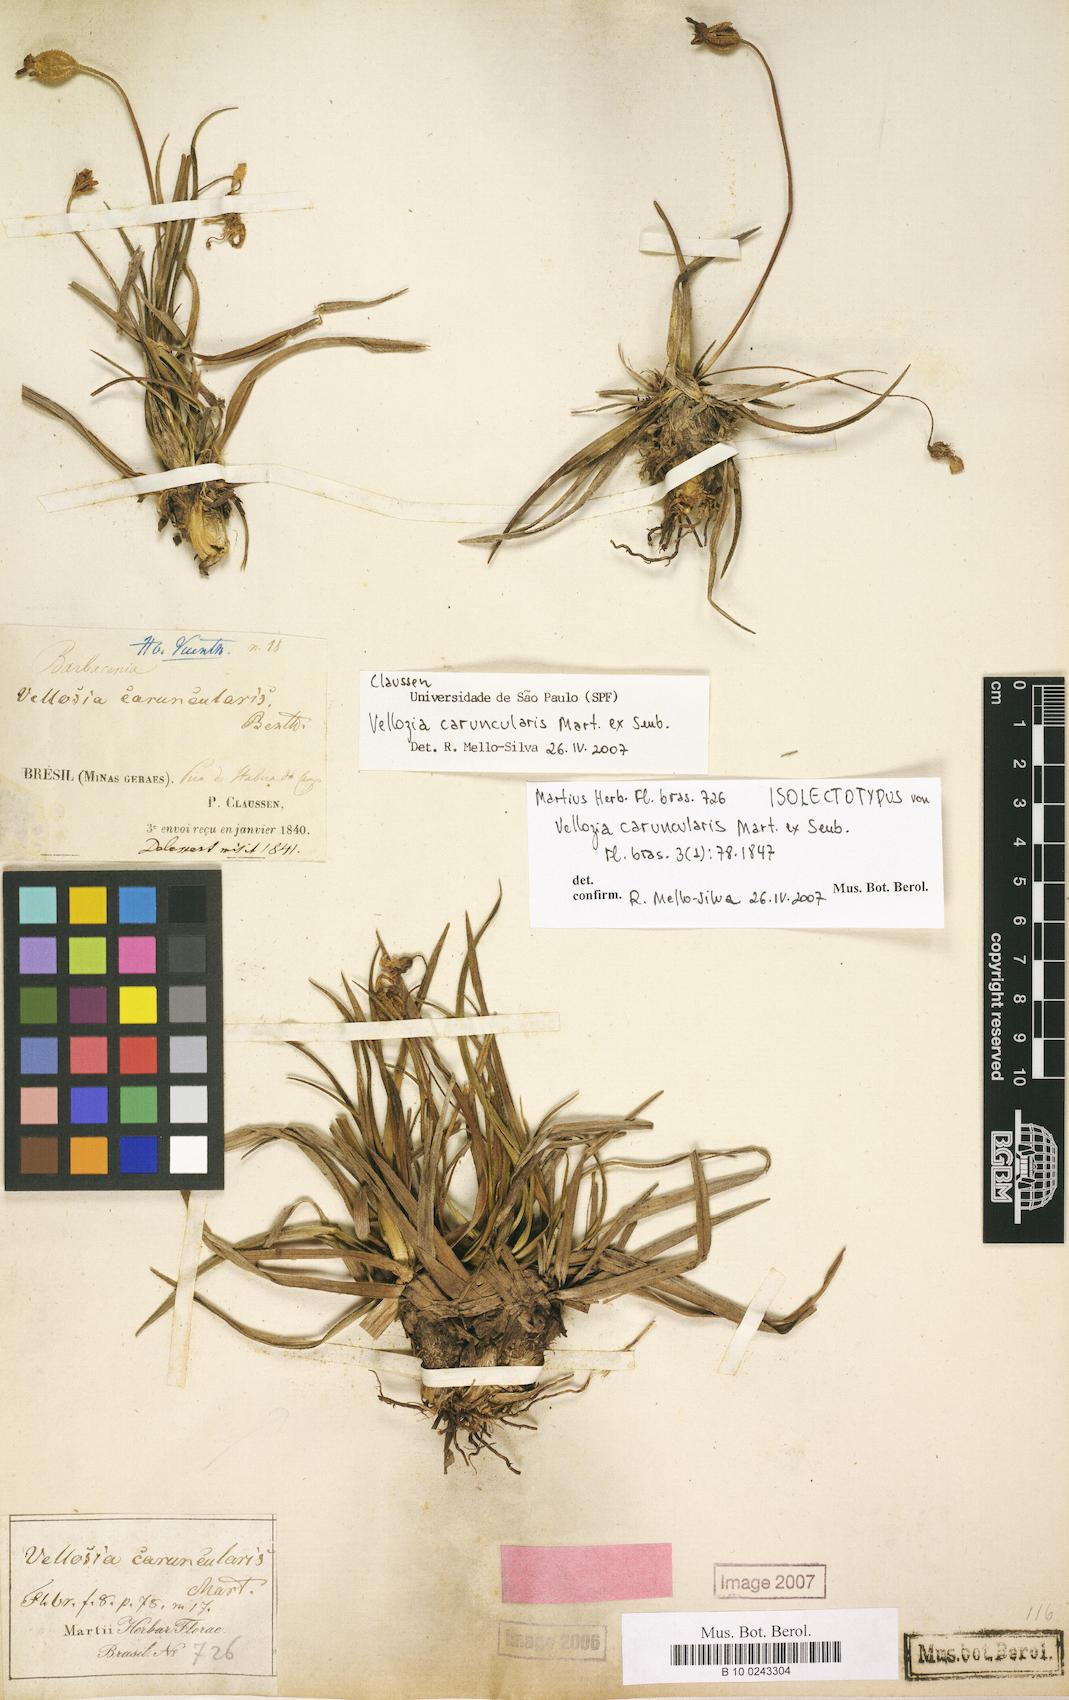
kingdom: Plantae
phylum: Tracheophyta
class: Liliopsida
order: Pandanales
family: Velloziaceae
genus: Vellozia
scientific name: Vellozia caruncularis
